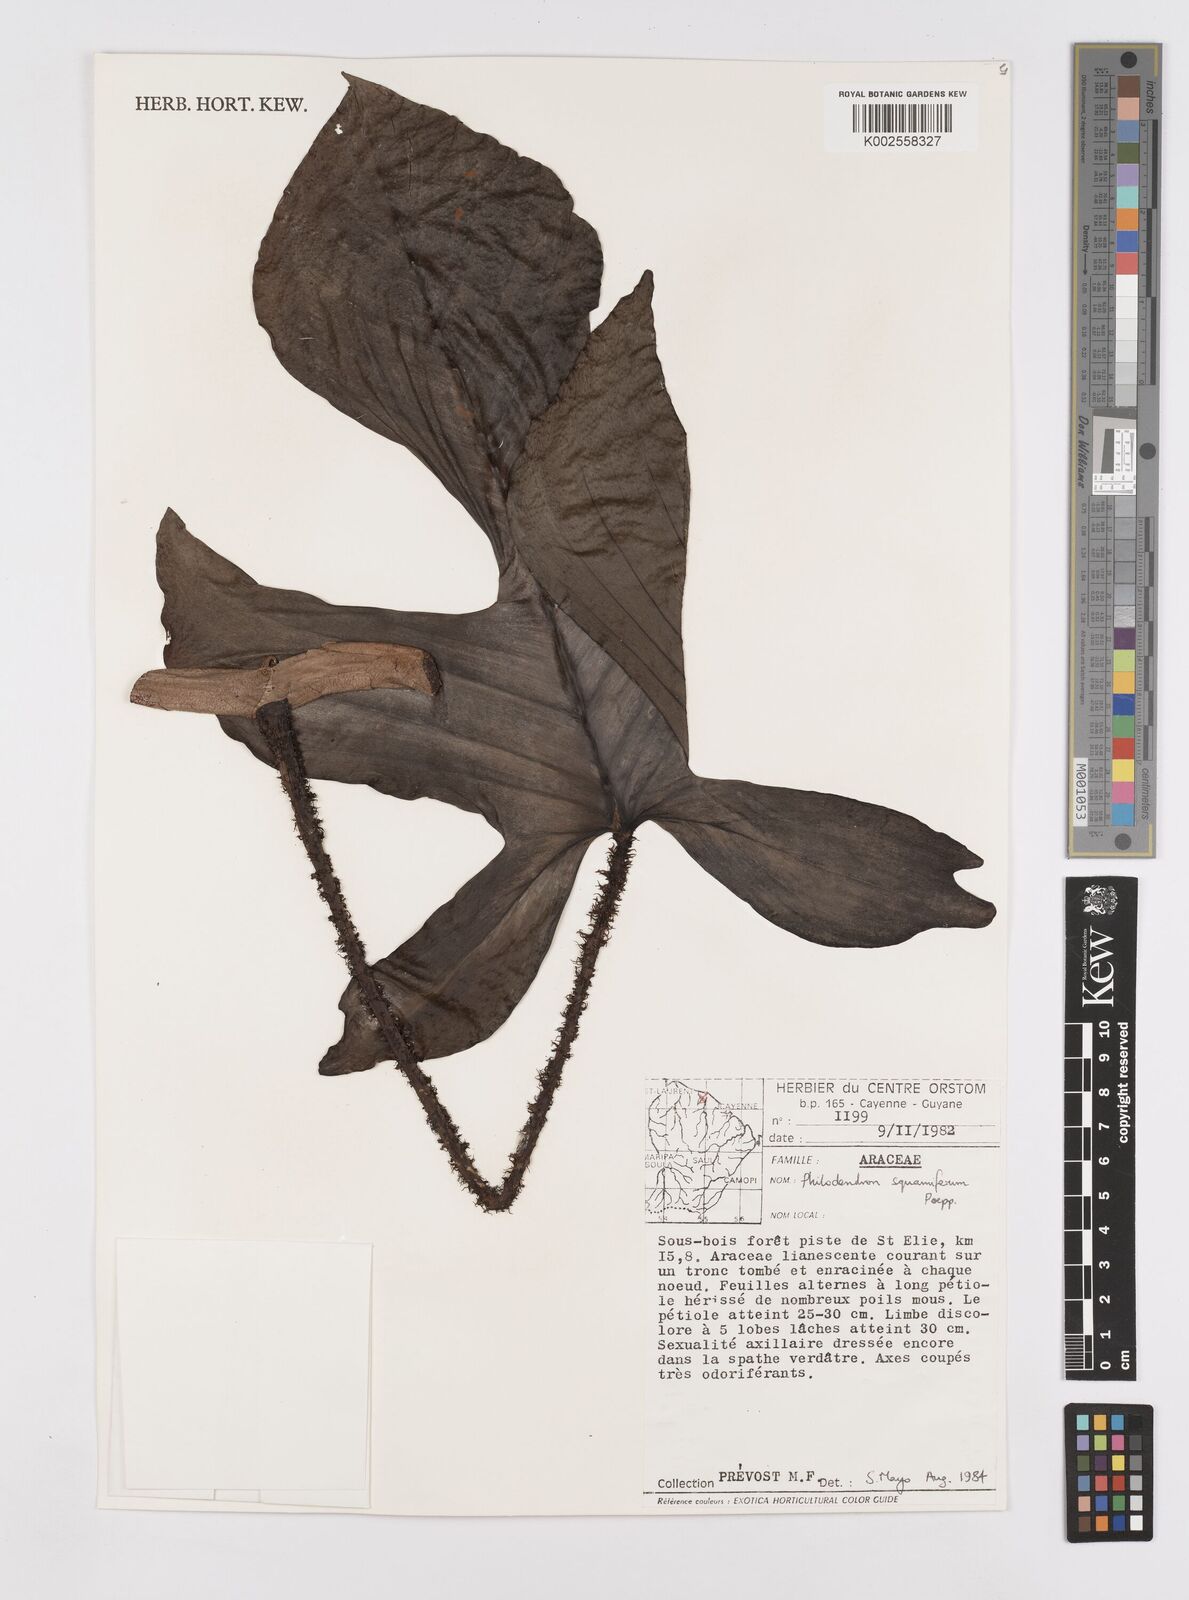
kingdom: Plantae
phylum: Tracheophyta
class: Liliopsida
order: Alismatales
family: Araceae
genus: Philodendron
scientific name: Philodendron squamiferum
